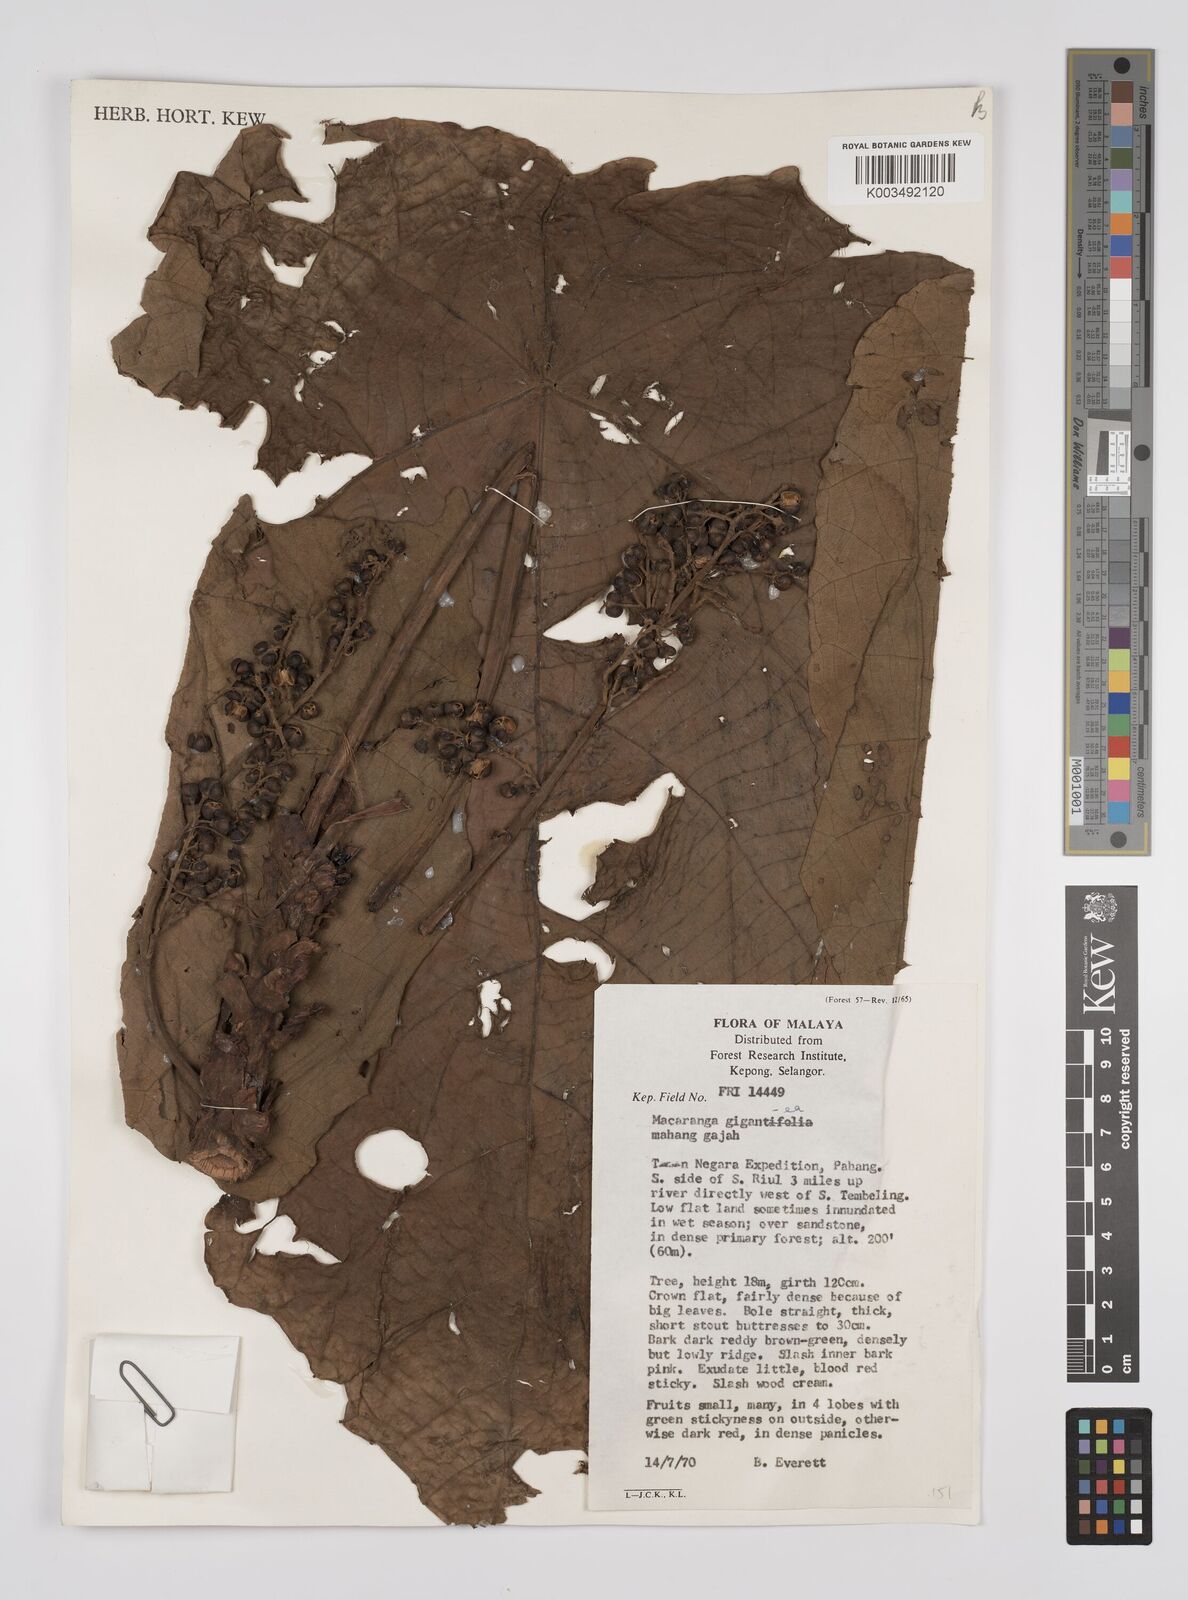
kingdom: Plantae
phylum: Tracheophyta
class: Magnoliopsida
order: Malpighiales
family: Euphorbiaceae
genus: Macaranga
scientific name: Macaranga gigantea
